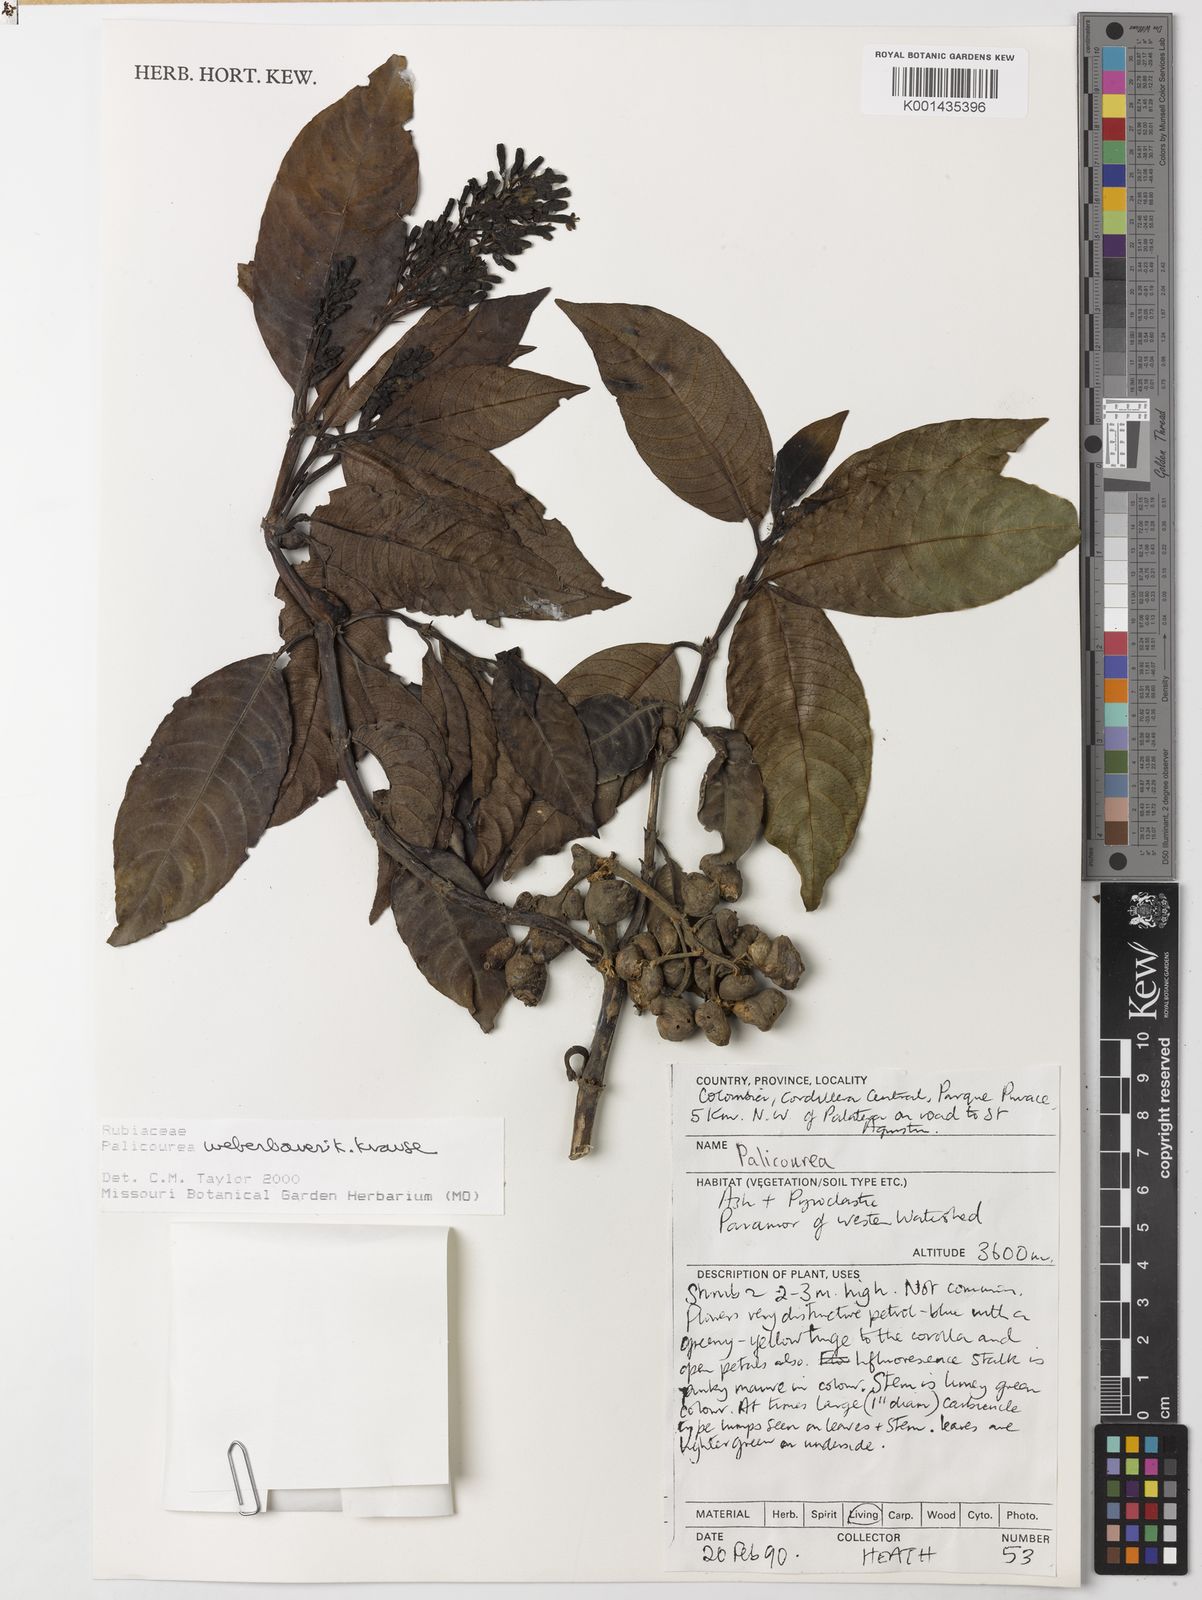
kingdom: Plantae
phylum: Tracheophyta
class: Magnoliopsida
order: Gentianales
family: Rubiaceae
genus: Palicourea
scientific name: Palicourea weberbaueri
